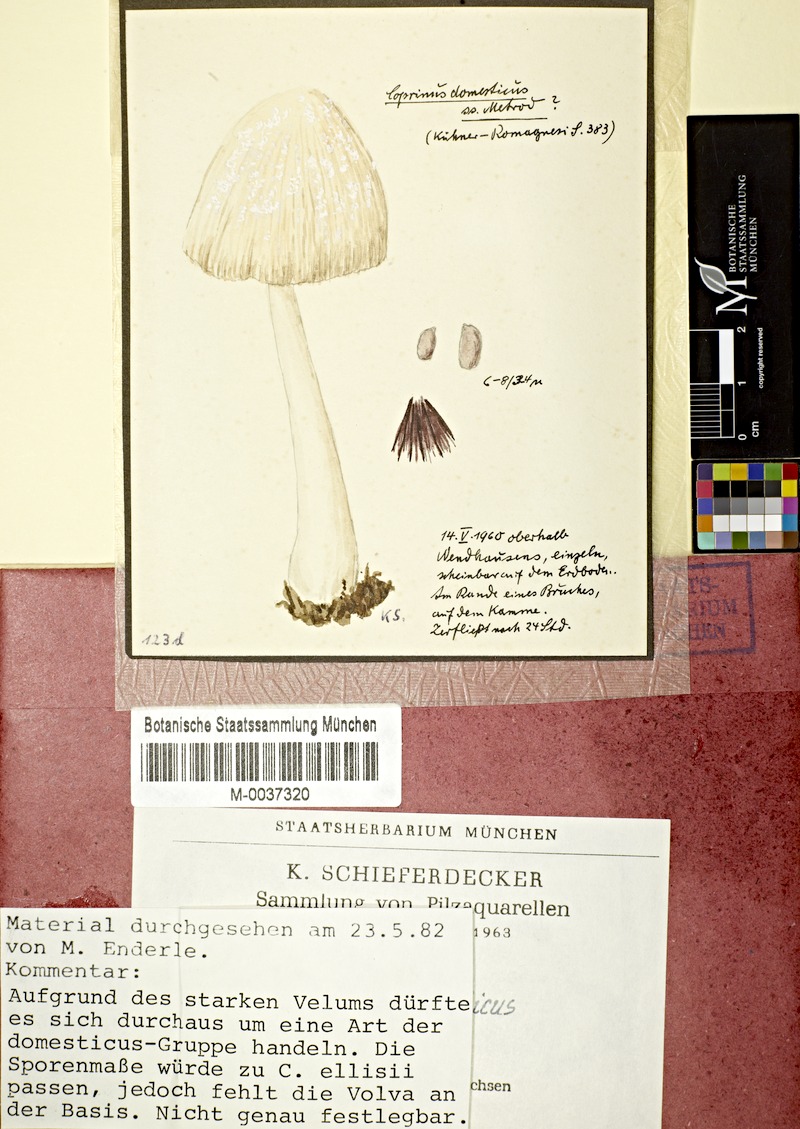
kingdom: Fungi
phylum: Basidiomycota
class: Agaricomycetes
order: Agaricales
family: Psathyrellaceae
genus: Coprinellus
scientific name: Coprinellus domesticus
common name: Firerug inkcap
